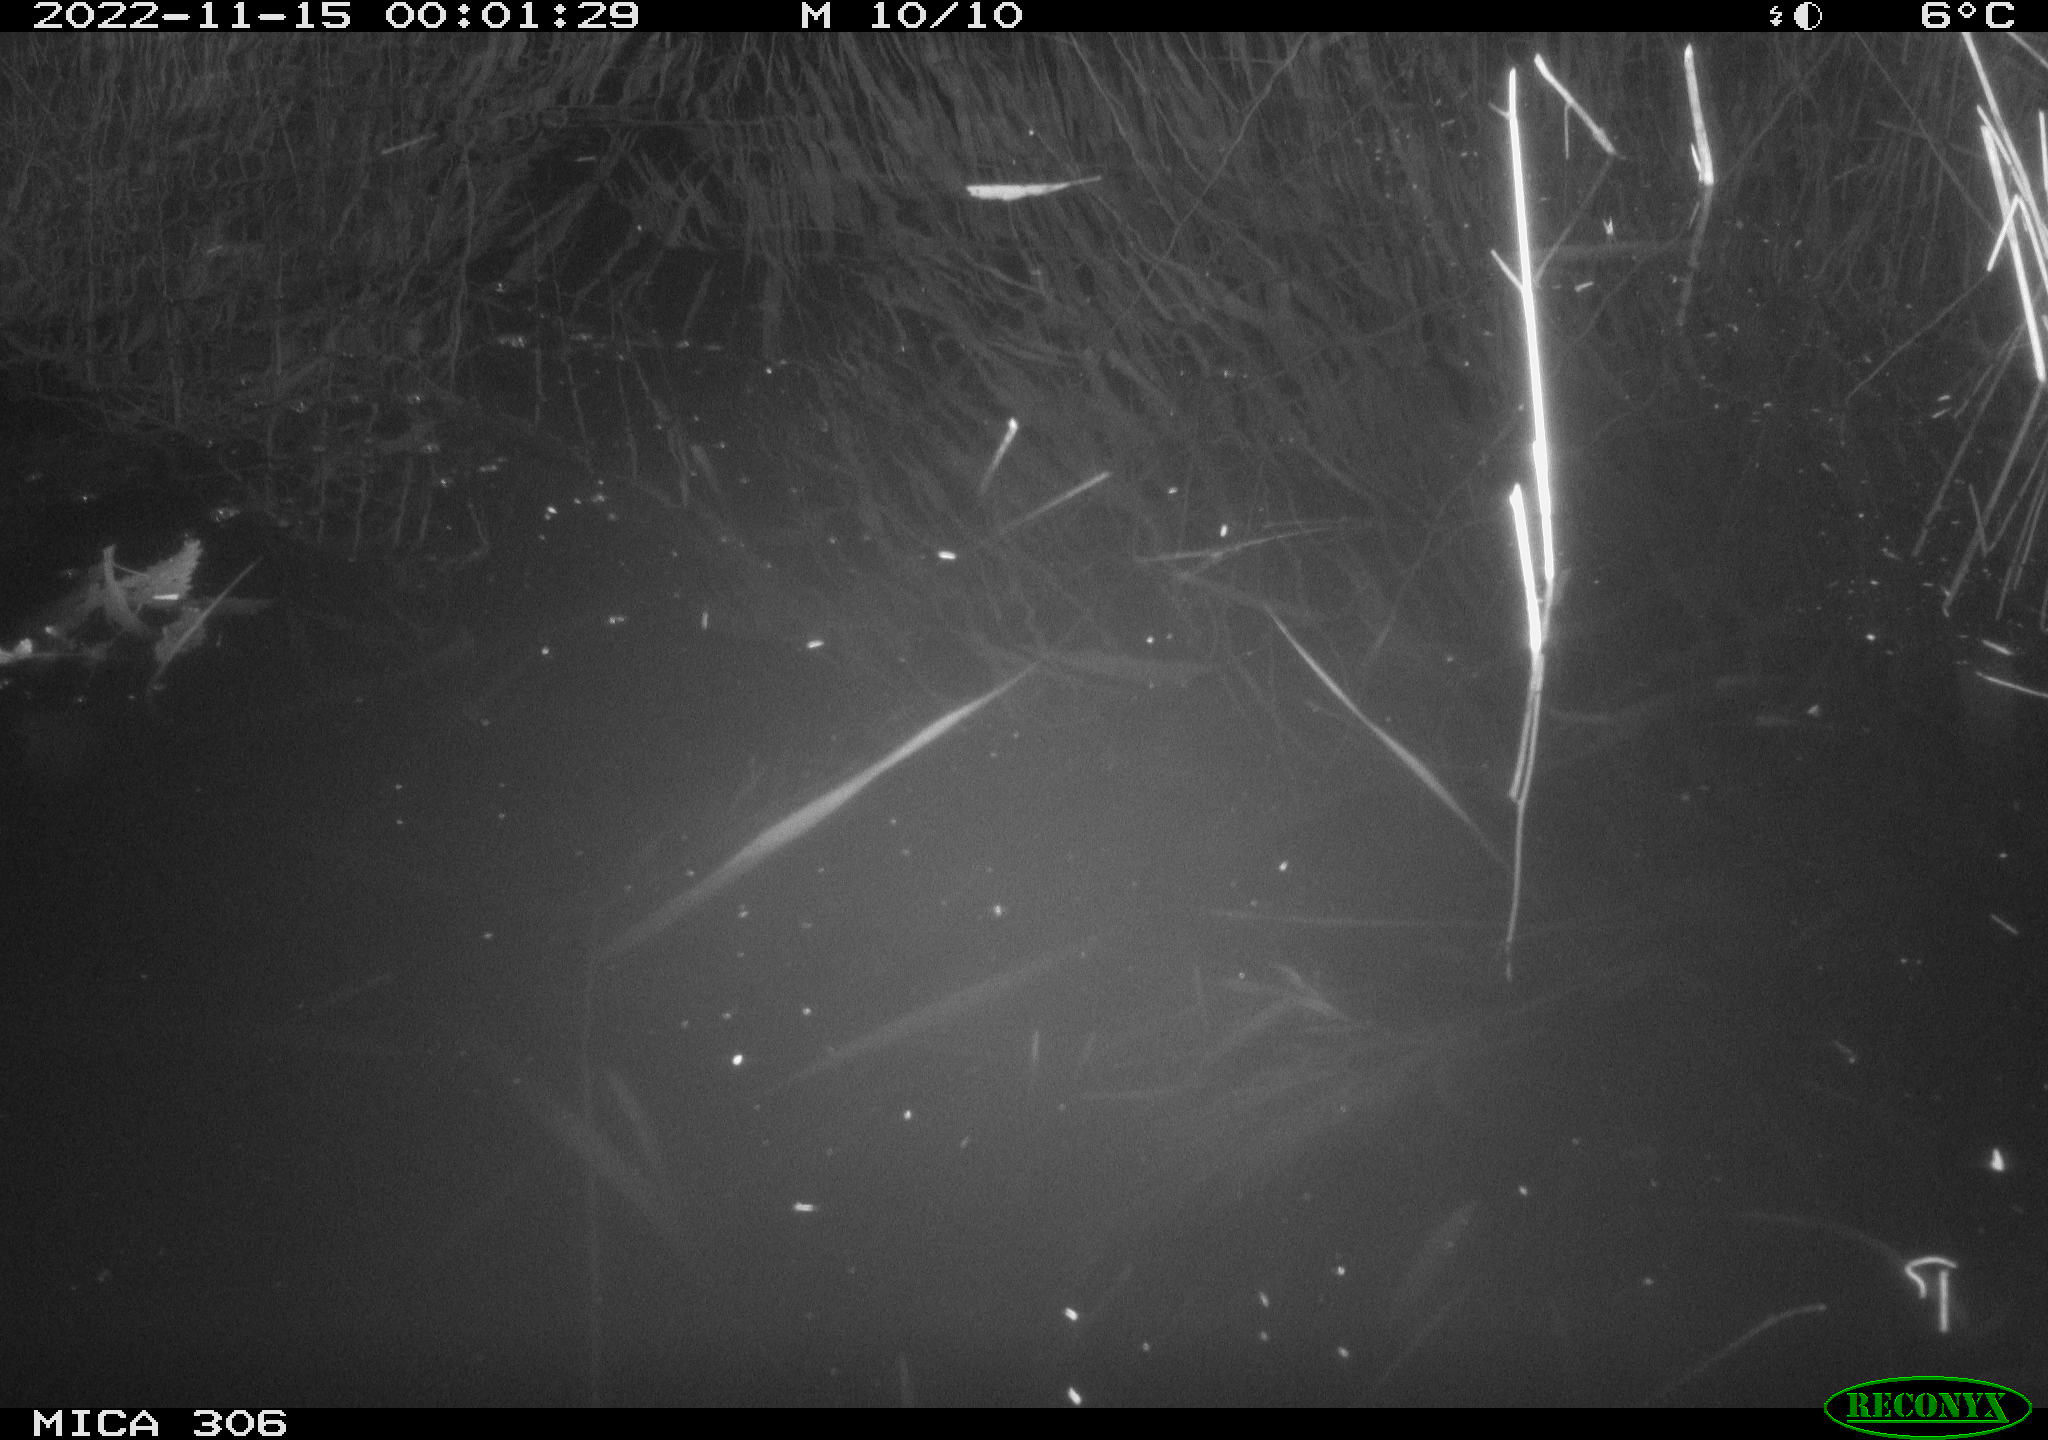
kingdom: Animalia
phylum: Chordata
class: Mammalia
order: Rodentia
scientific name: Rodentia
